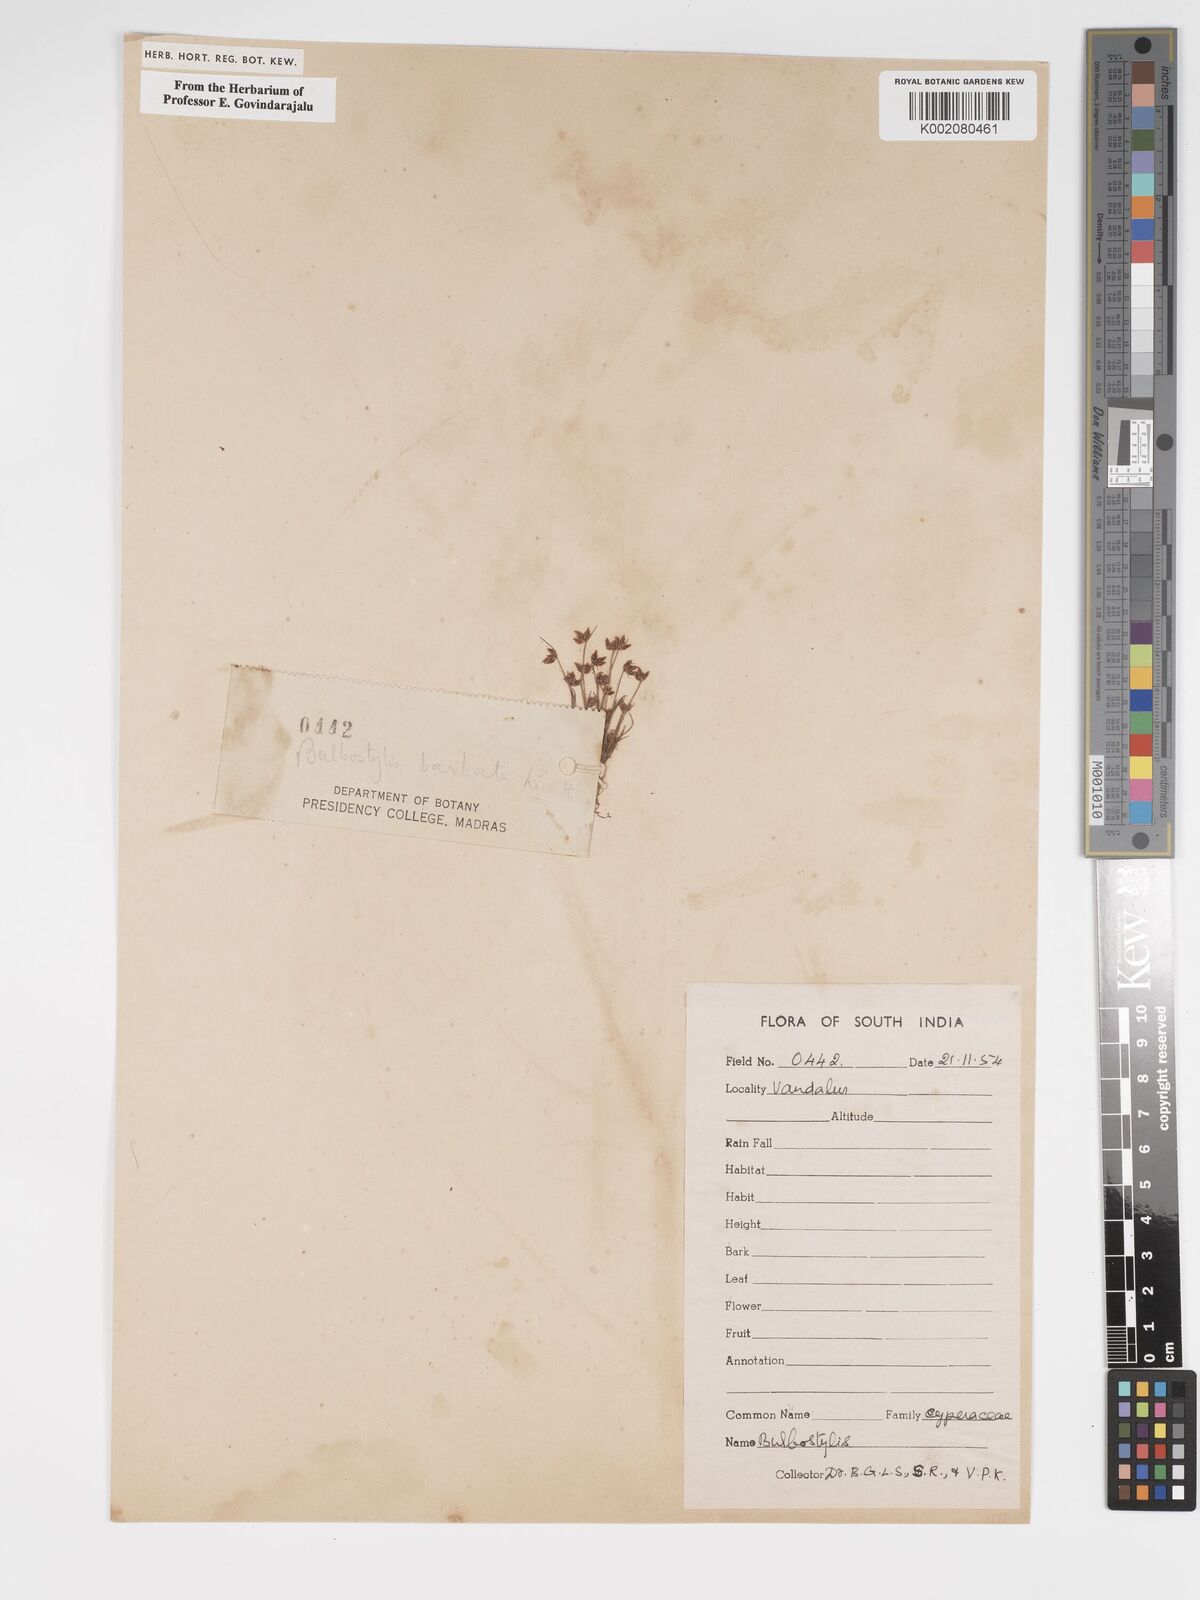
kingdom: Plantae
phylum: Tracheophyta
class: Liliopsida
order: Poales
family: Cyperaceae
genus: Bulbostylis
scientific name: Bulbostylis barbata
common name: Watergrass
